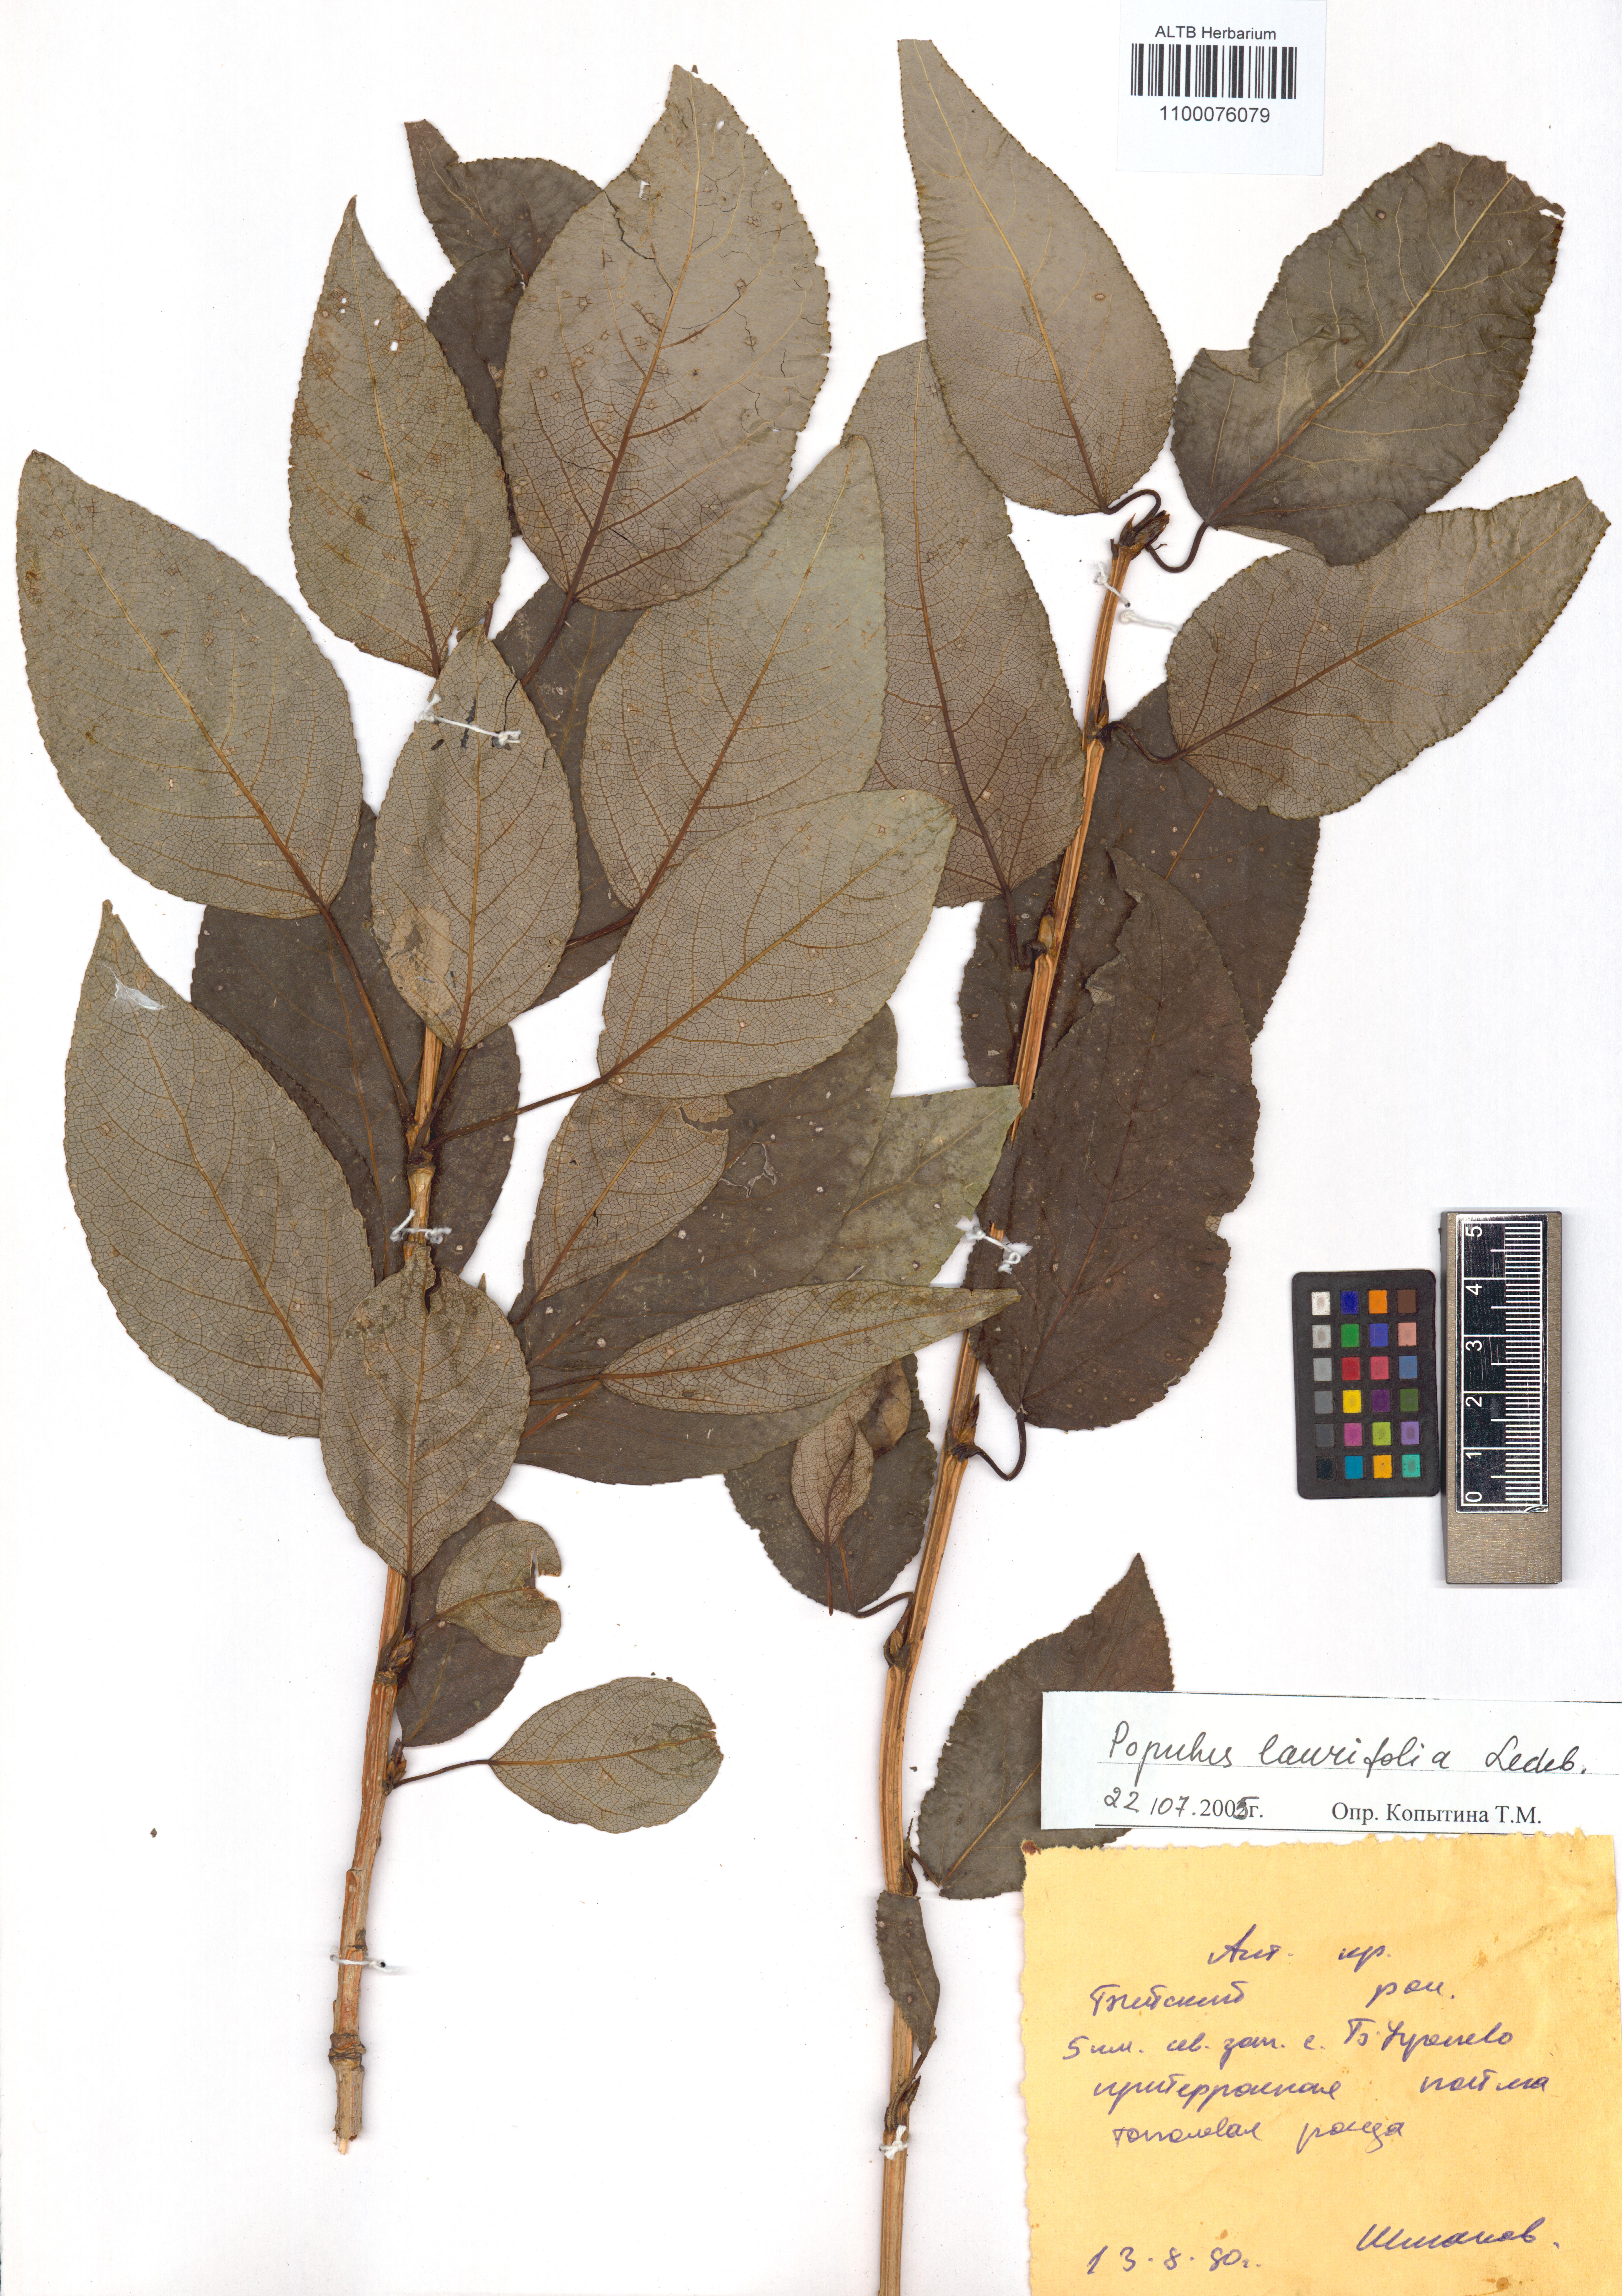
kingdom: Plantae
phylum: Tracheophyta
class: Magnoliopsida
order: Malpighiales
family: Salicaceae
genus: Populus
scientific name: Populus laurifolia
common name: Laurel-leaf poplar
